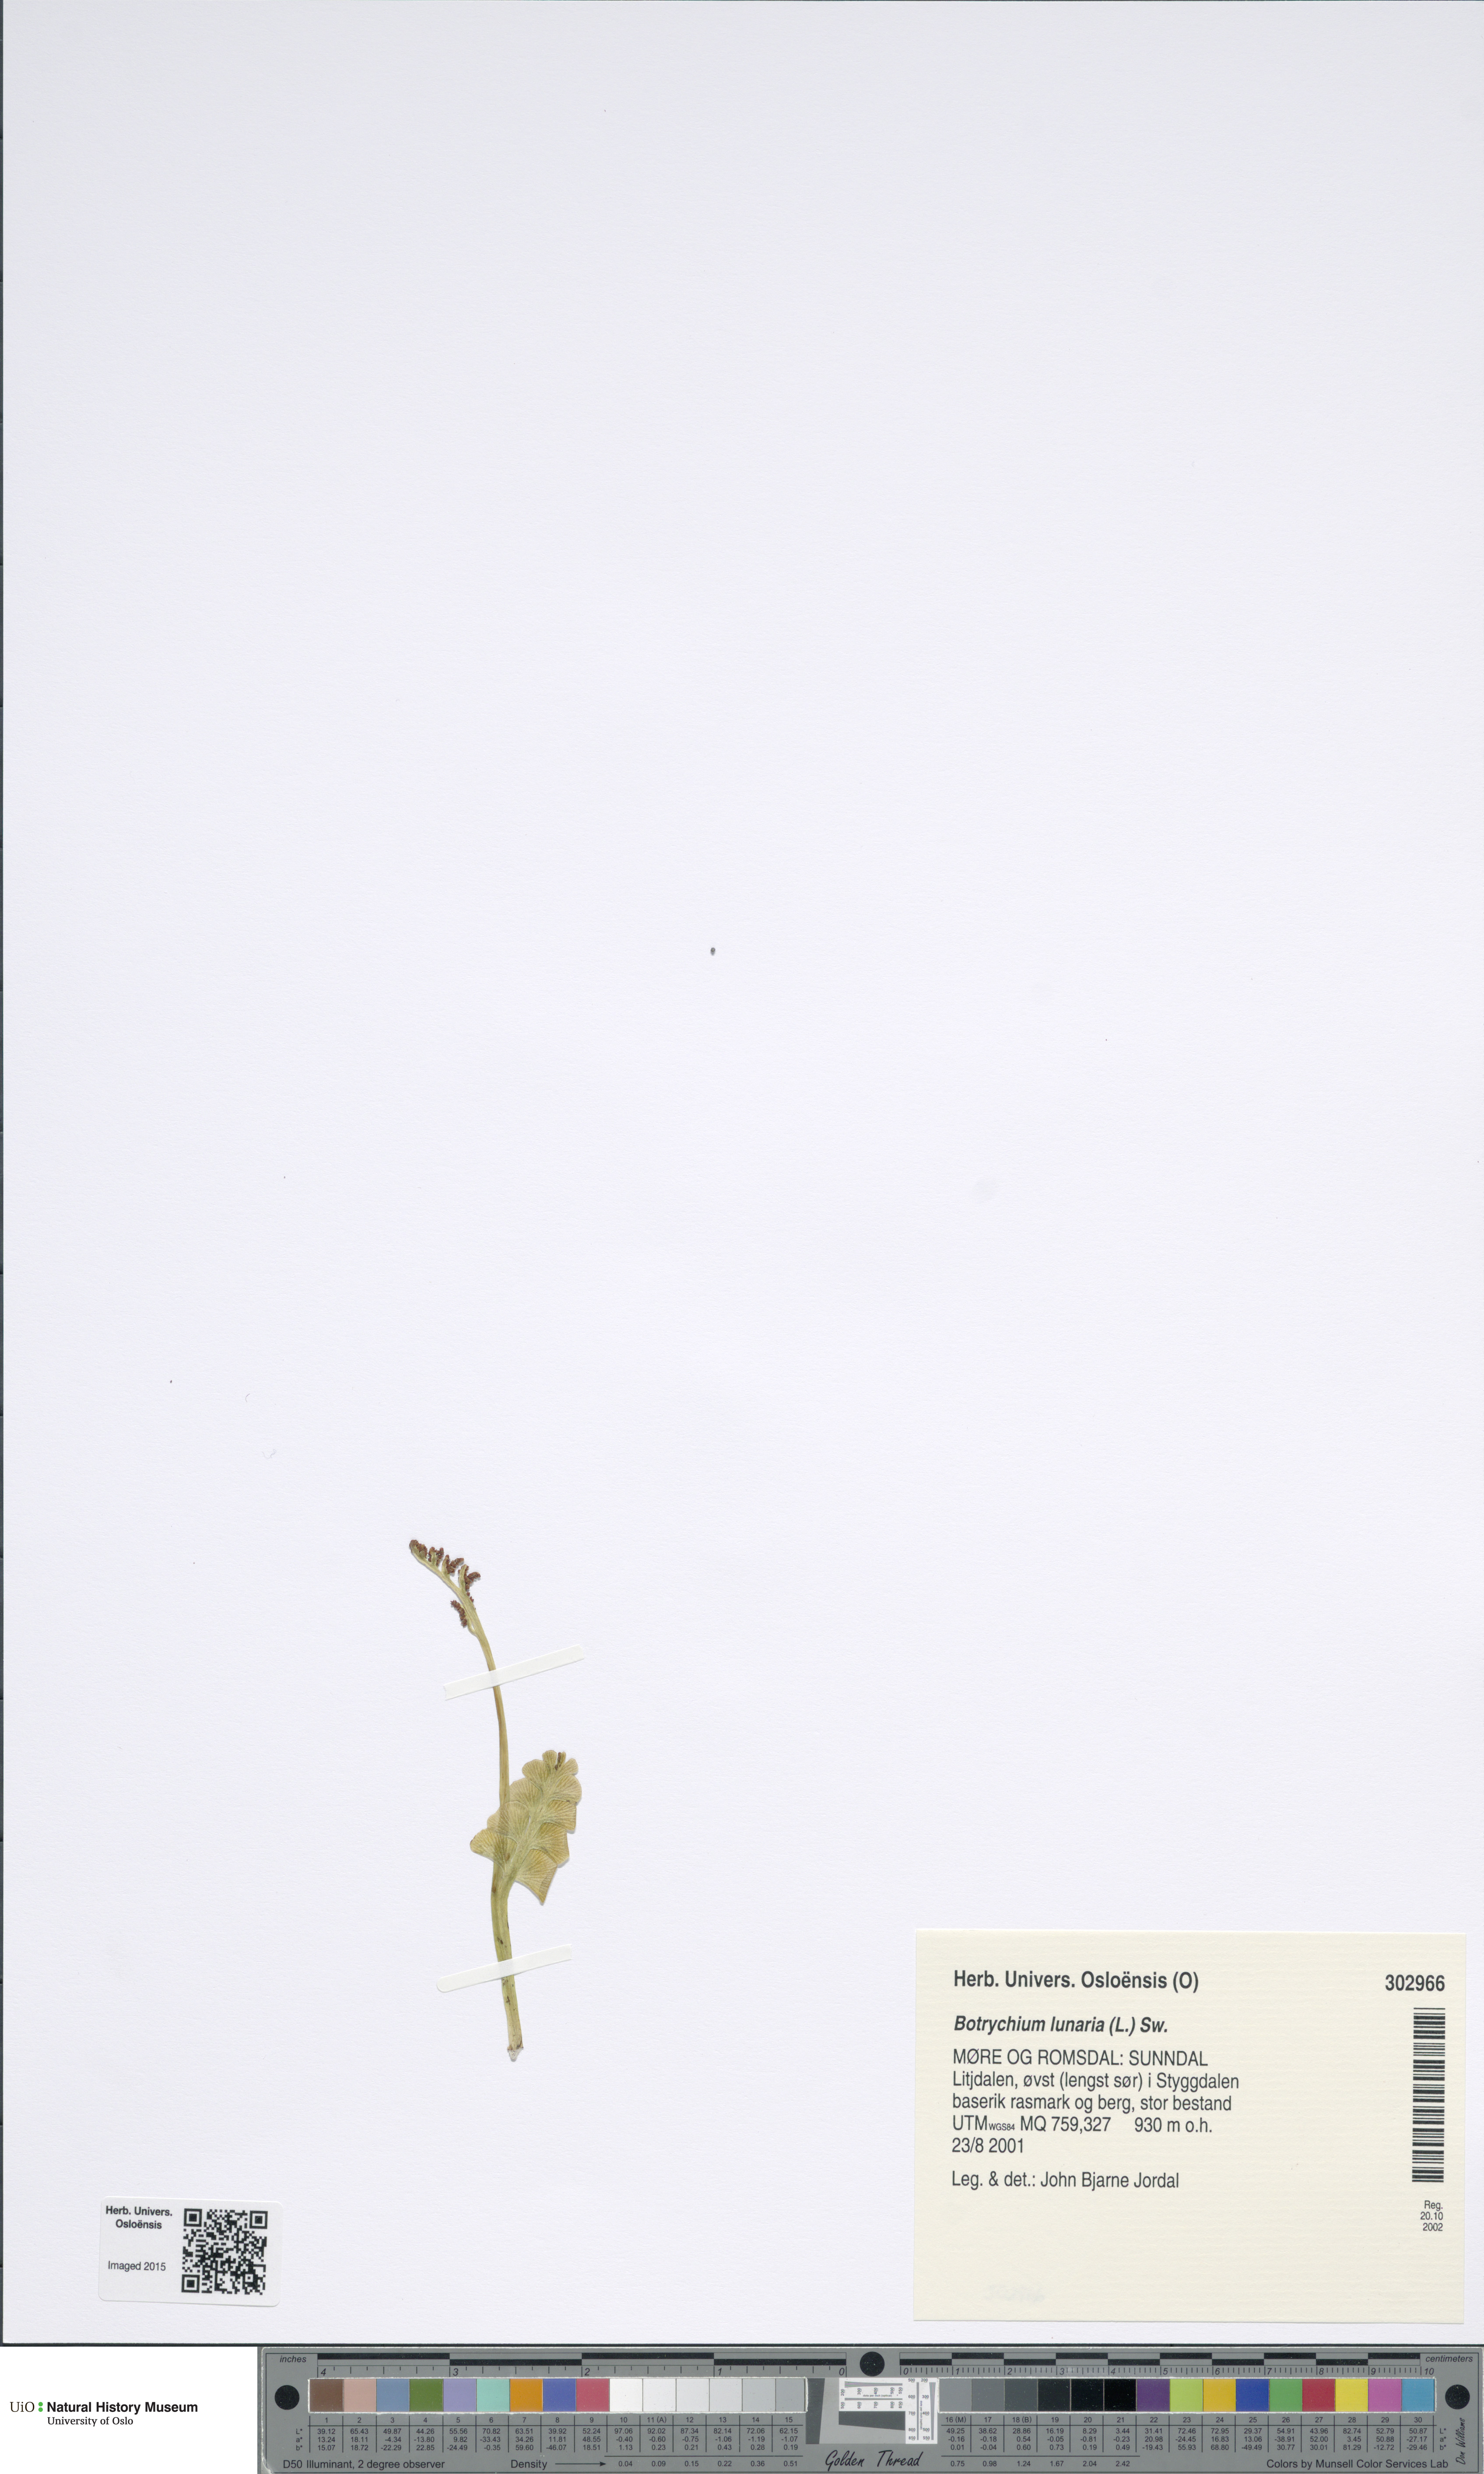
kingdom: Plantae
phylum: Tracheophyta
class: Polypodiopsida
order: Ophioglossales
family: Ophioglossaceae
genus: Botrychium
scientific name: Botrychium lunaria
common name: Moonwort
